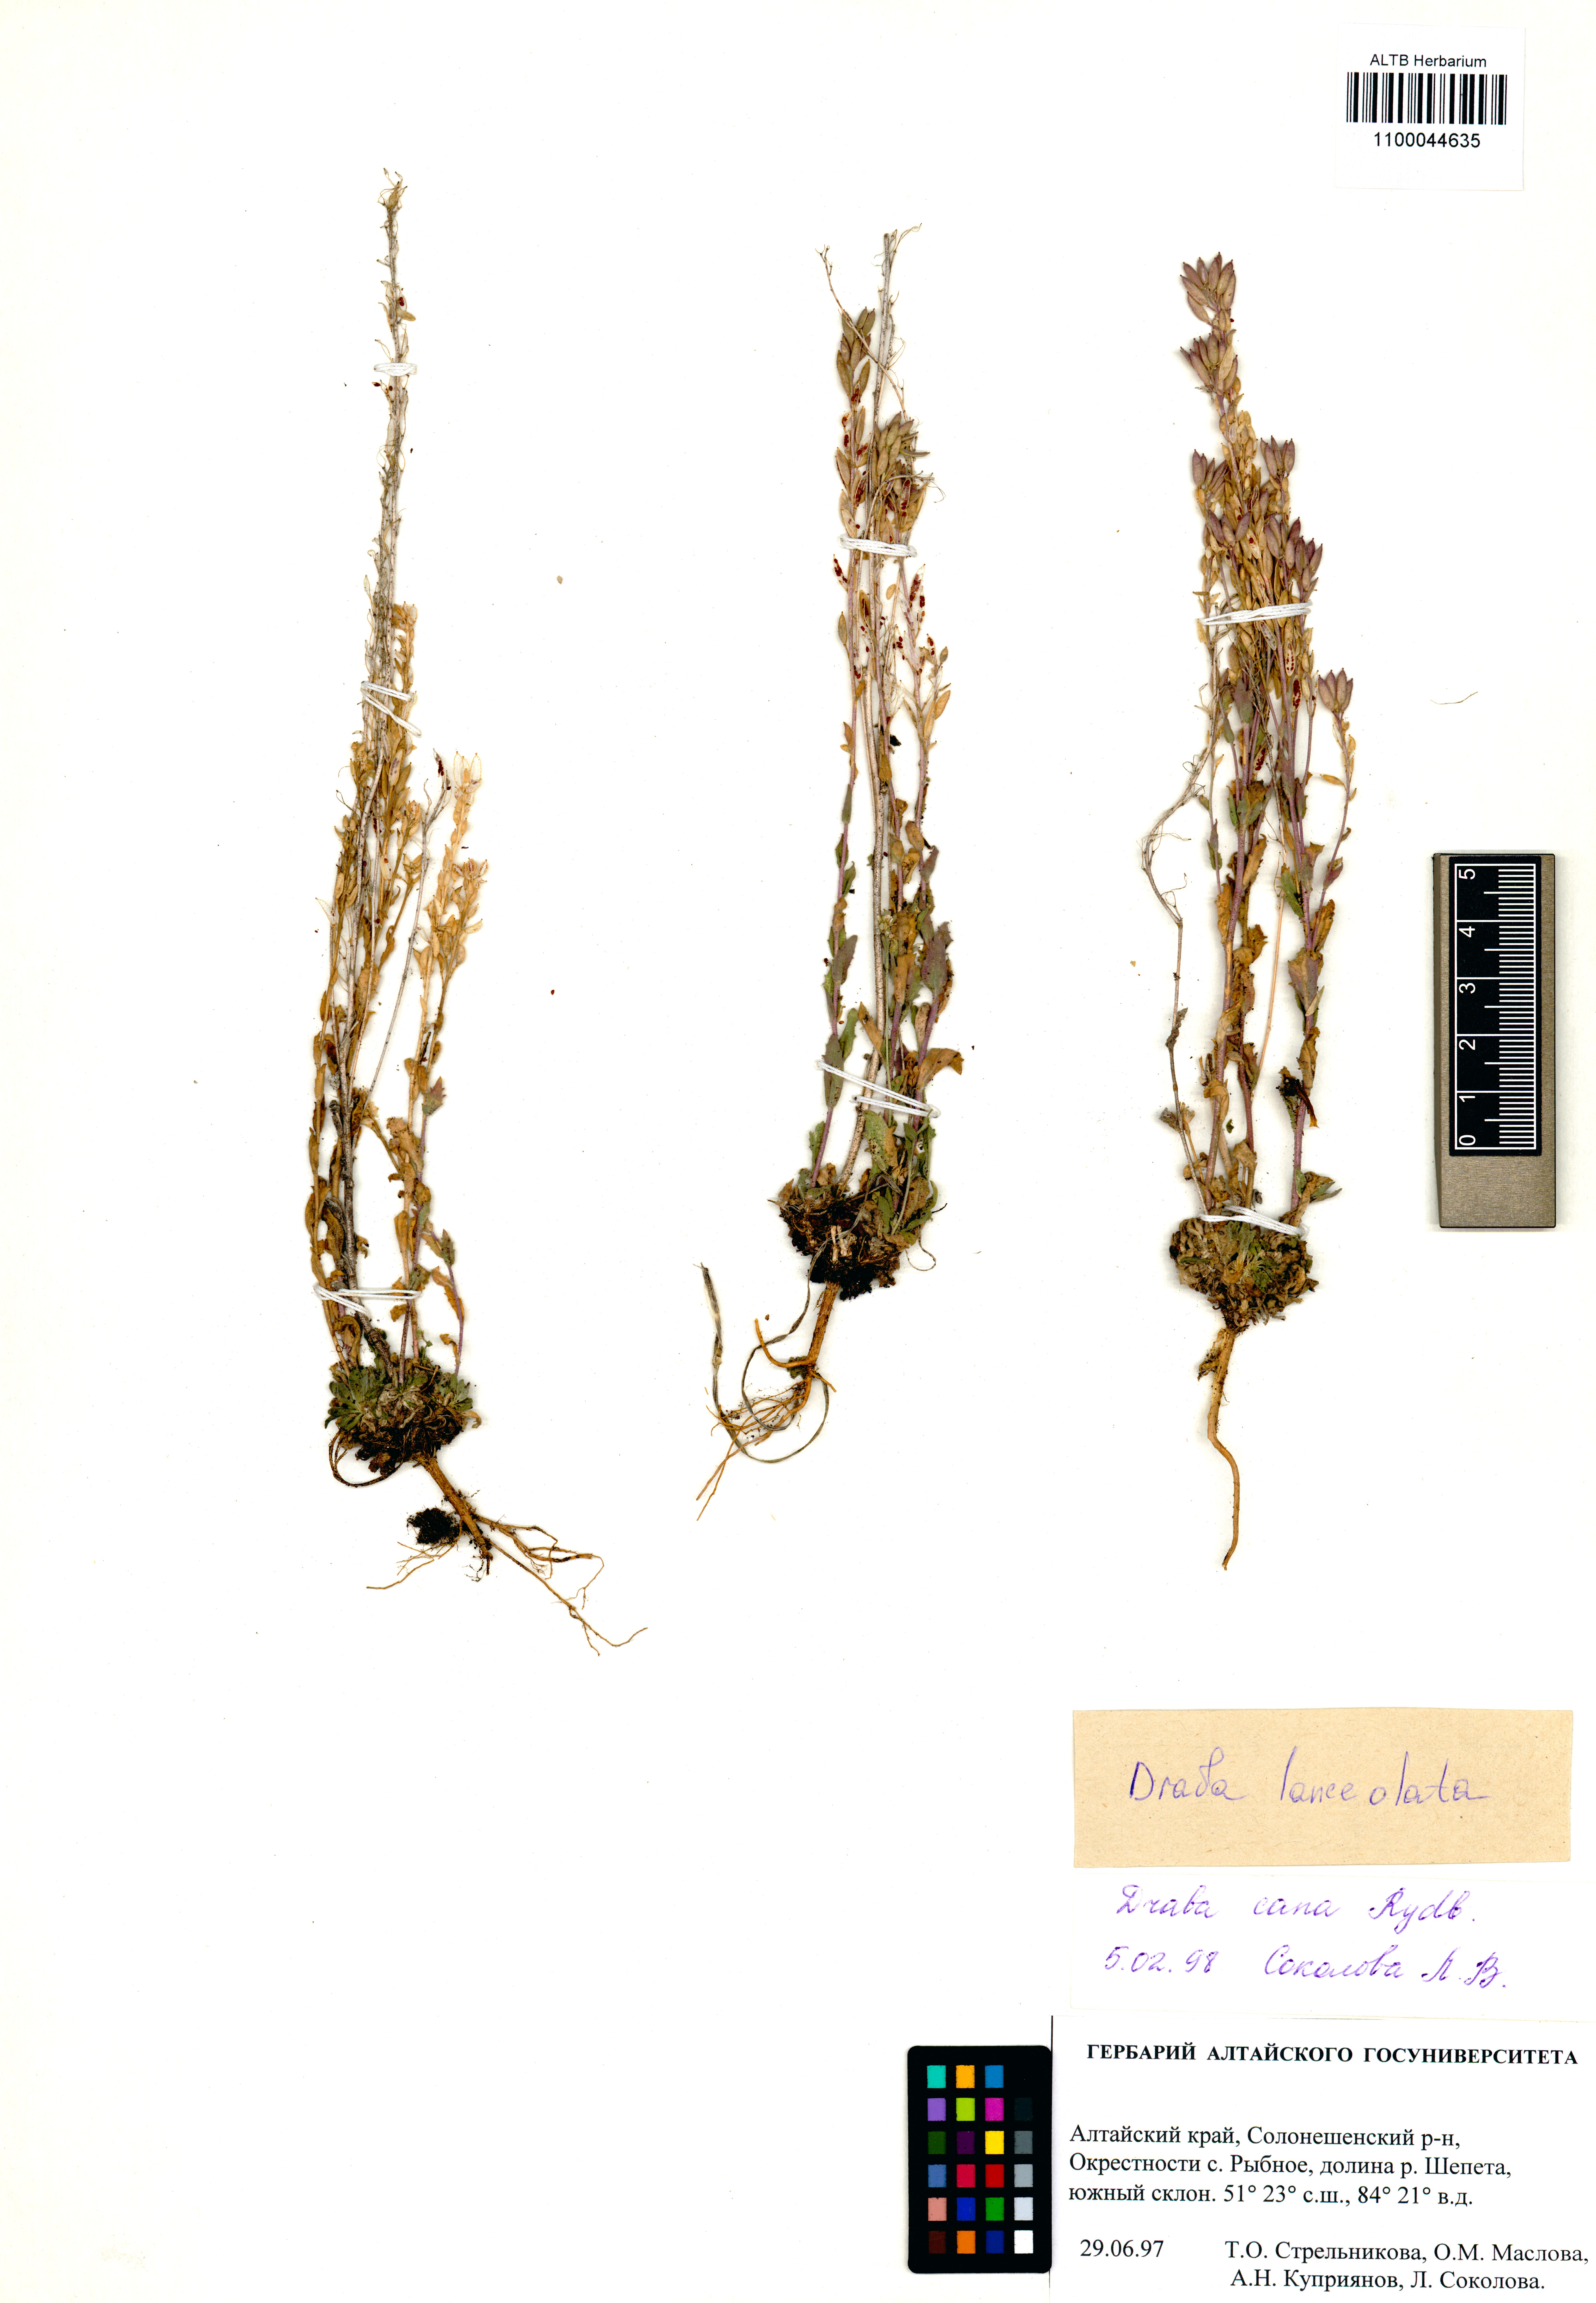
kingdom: Plantae
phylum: Tracheophyta
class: Magnoliopsida
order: Brassicales
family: Brassicaceae
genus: Draba
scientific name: Draba lanceolata
